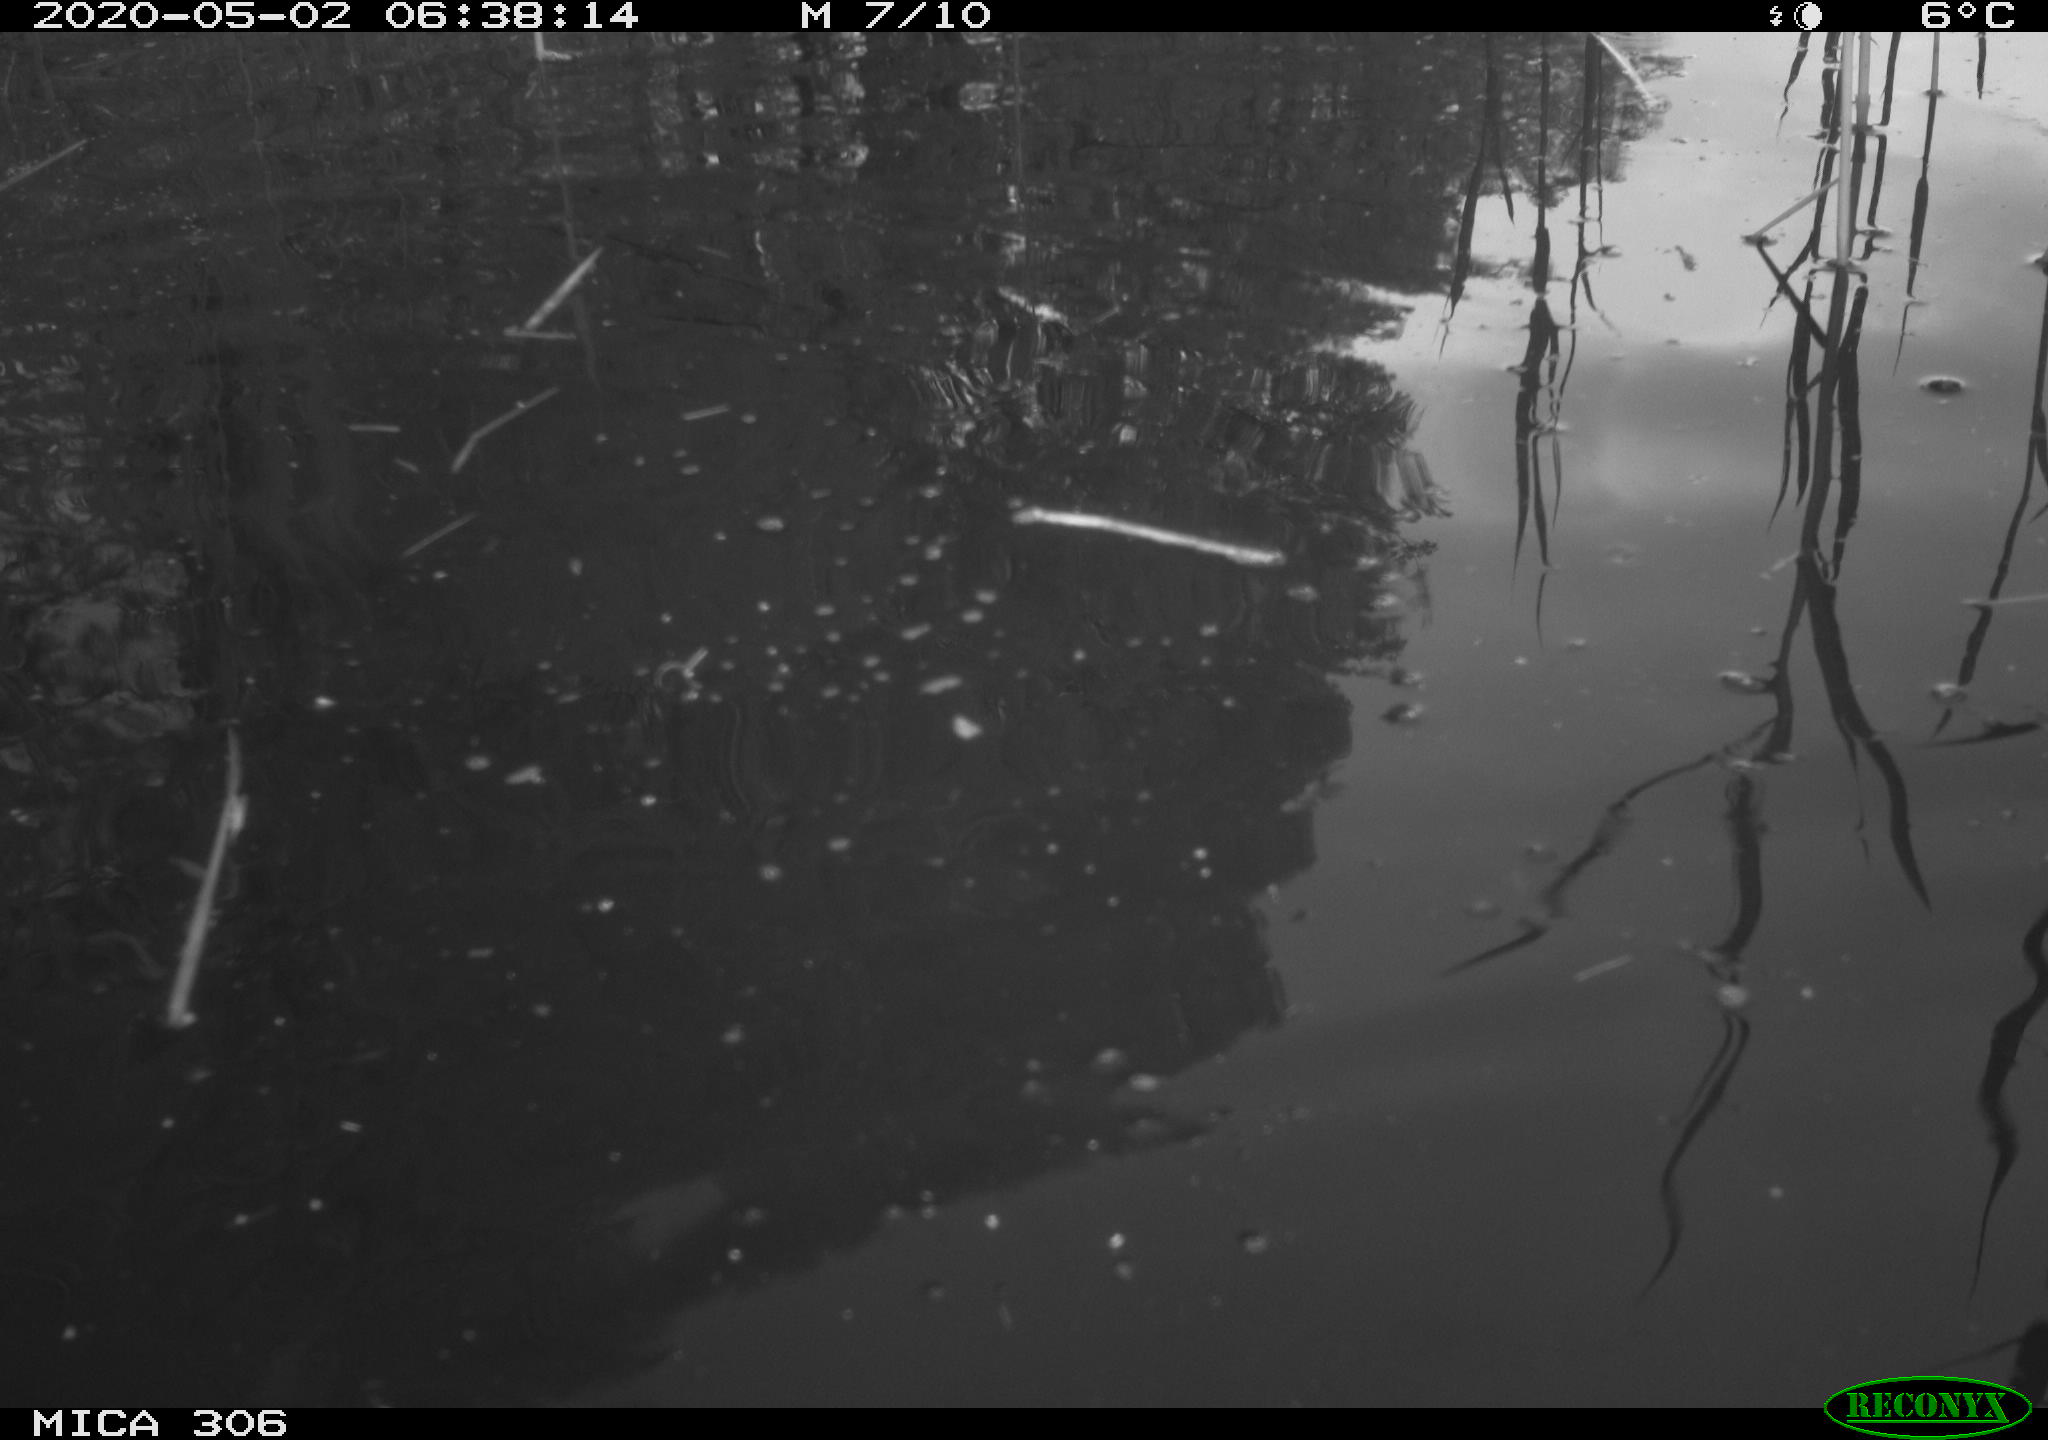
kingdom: Animalia
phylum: Chordata
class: Aves
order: Gruiformes
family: Rallidae
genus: Gallinula
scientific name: Gallinula chloropus
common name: Common moorhen
